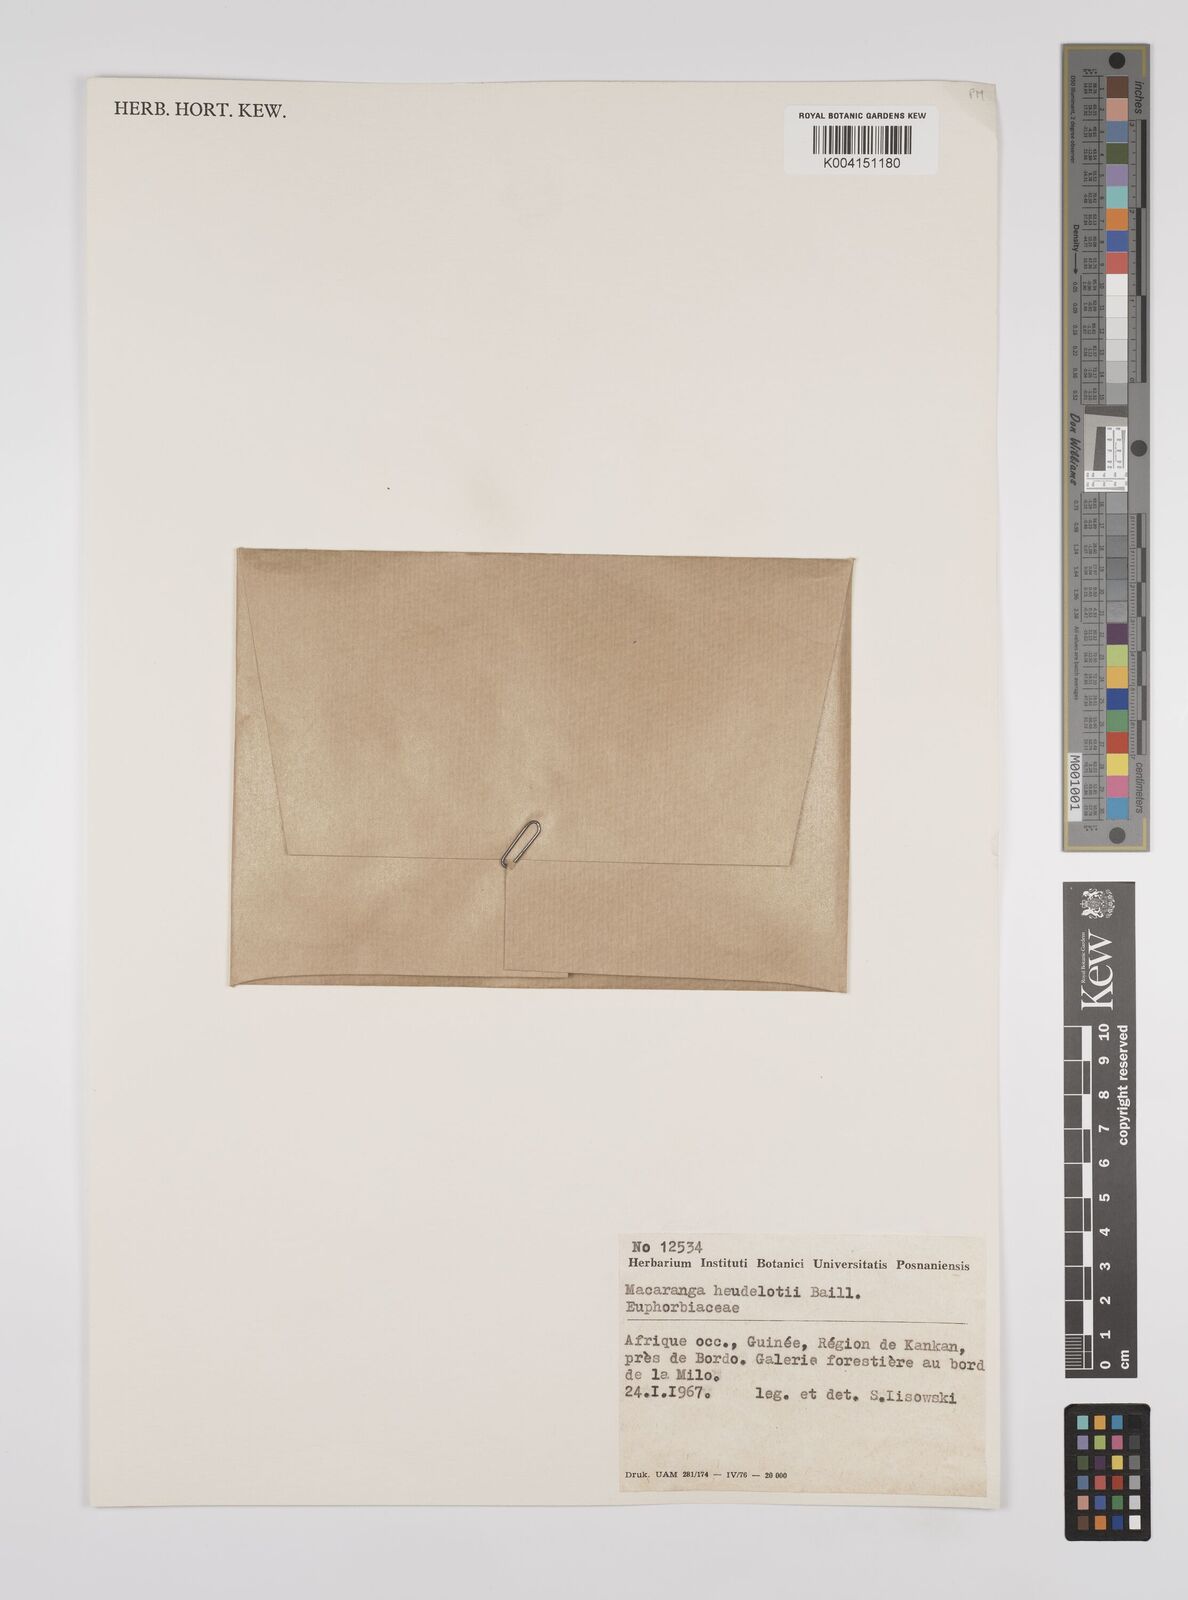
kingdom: Plantae
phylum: Tracheophyta
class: Magnoliopsida
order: Malpighiales
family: Euphorbiaceae
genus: Macaranga
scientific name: Macaranga heudelotii
